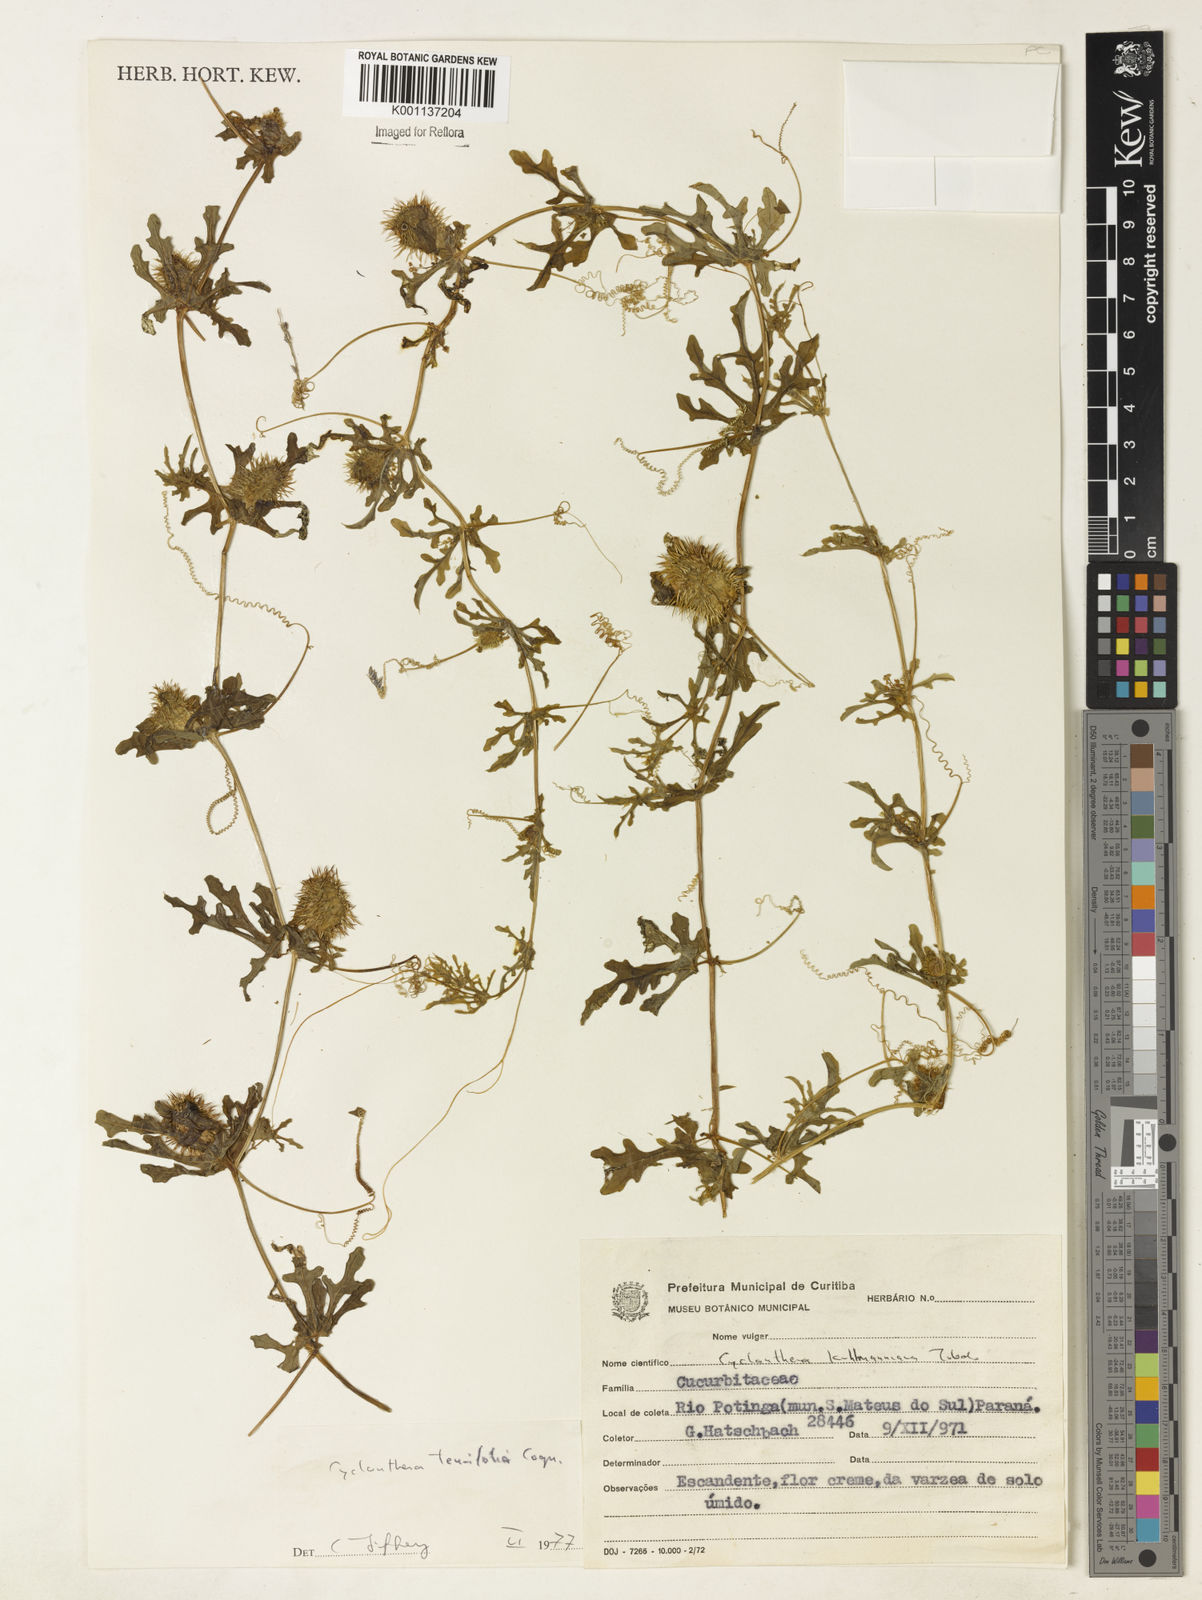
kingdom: Plantae
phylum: Tracheophyta
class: Magnoliopsida
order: Cucurbitales
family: Cucurbitaceae
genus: Cyclanthera
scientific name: Cyclanthera tenuifolia
